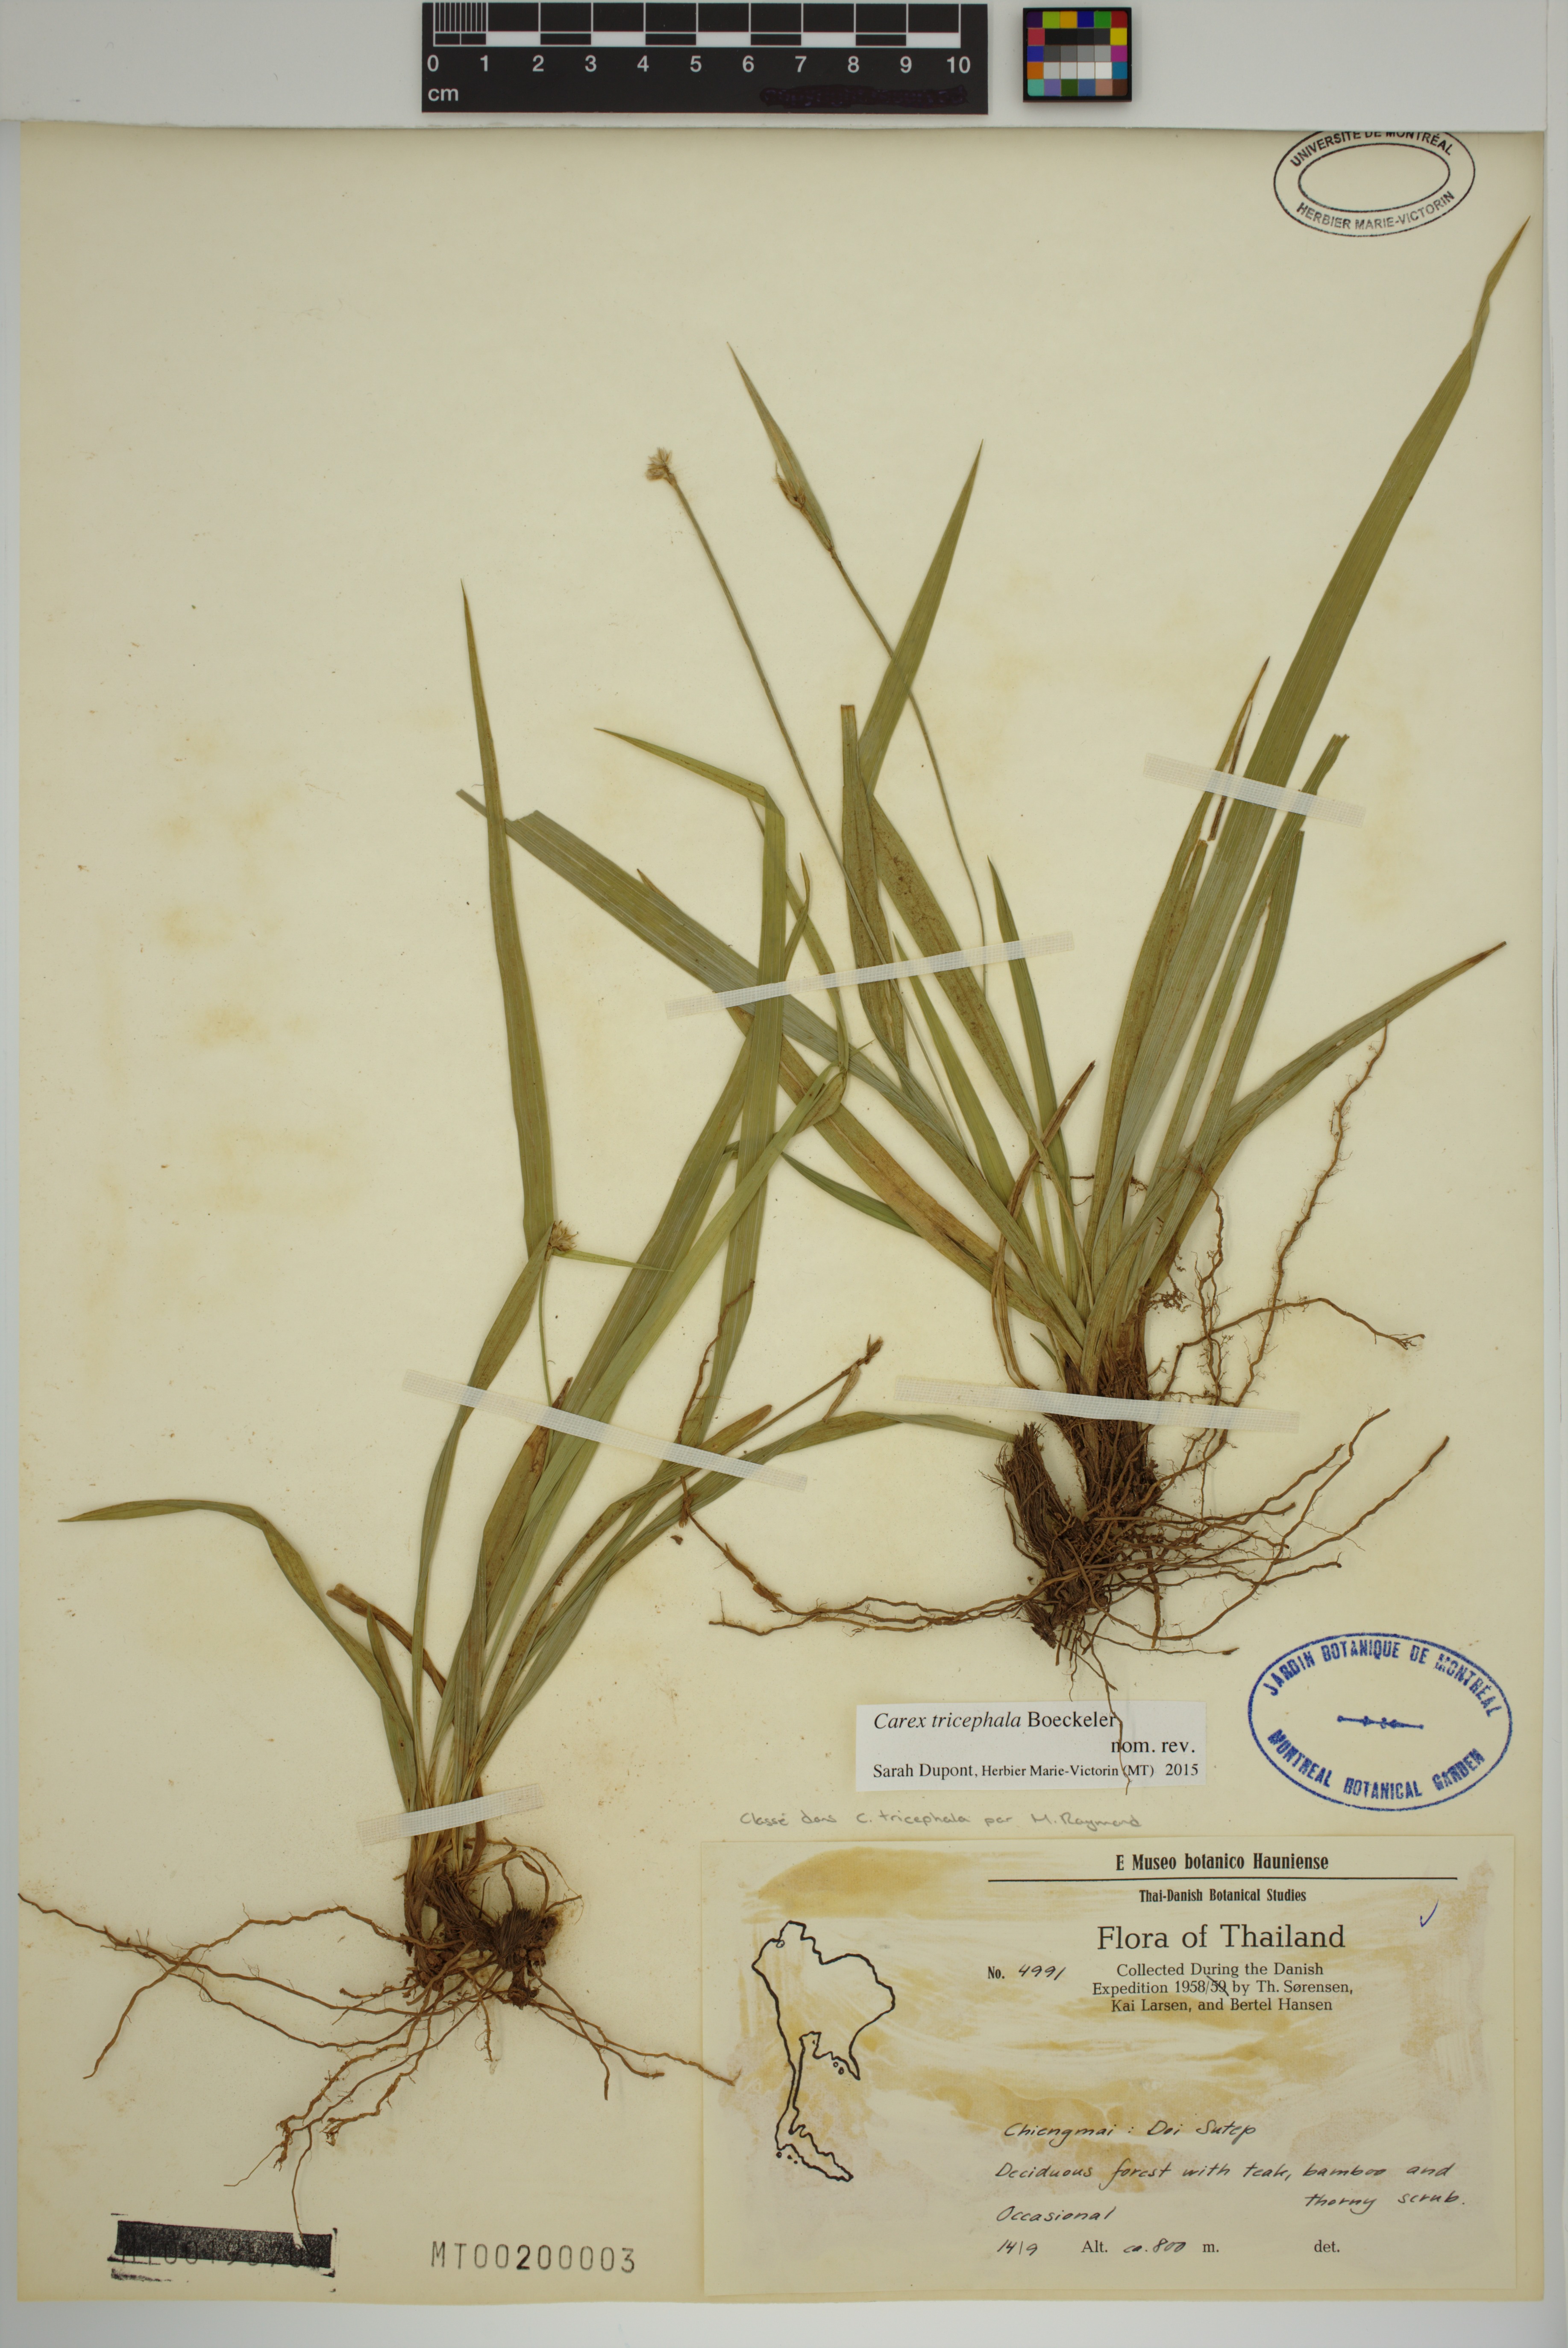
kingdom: Plantae
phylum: Tracheophyta
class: Liliopsida
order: Poales
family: Cyperaceae
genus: Carex
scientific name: Carex tricephala
